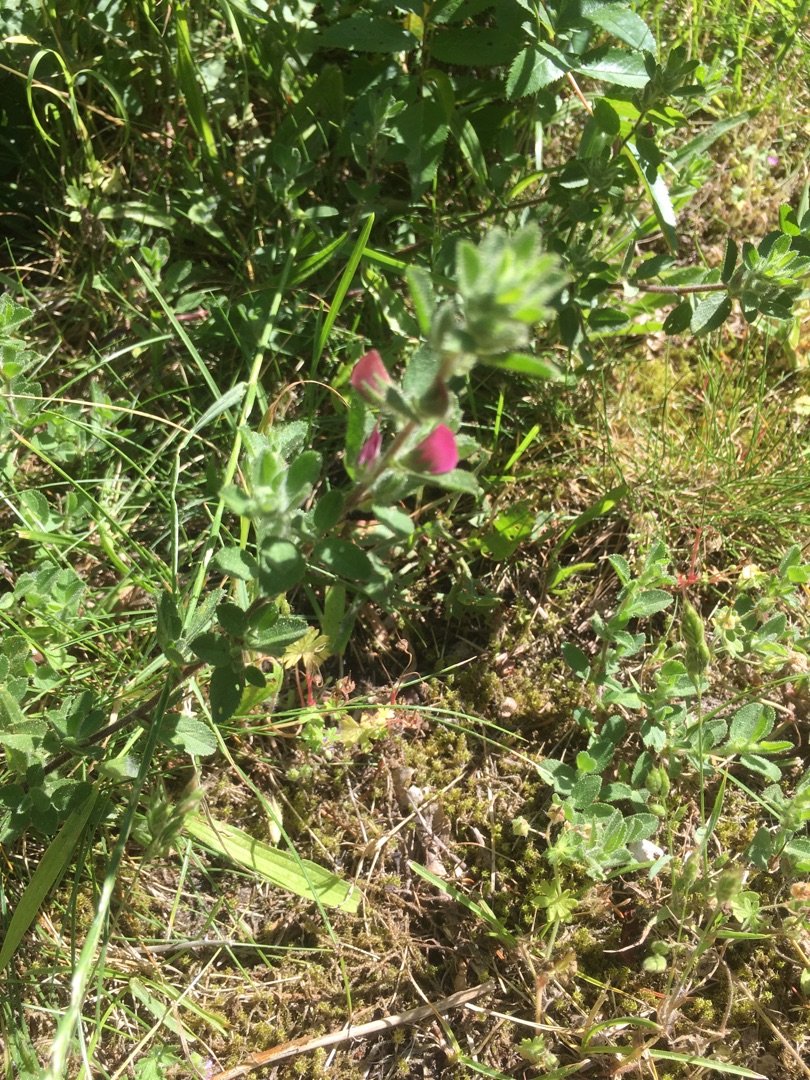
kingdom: Plantae
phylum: Tracheophyta
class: Magnoliopsida
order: Fabales
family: Fabaceae
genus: Ononis
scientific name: Ononis spinosa
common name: Mark-krageklo
